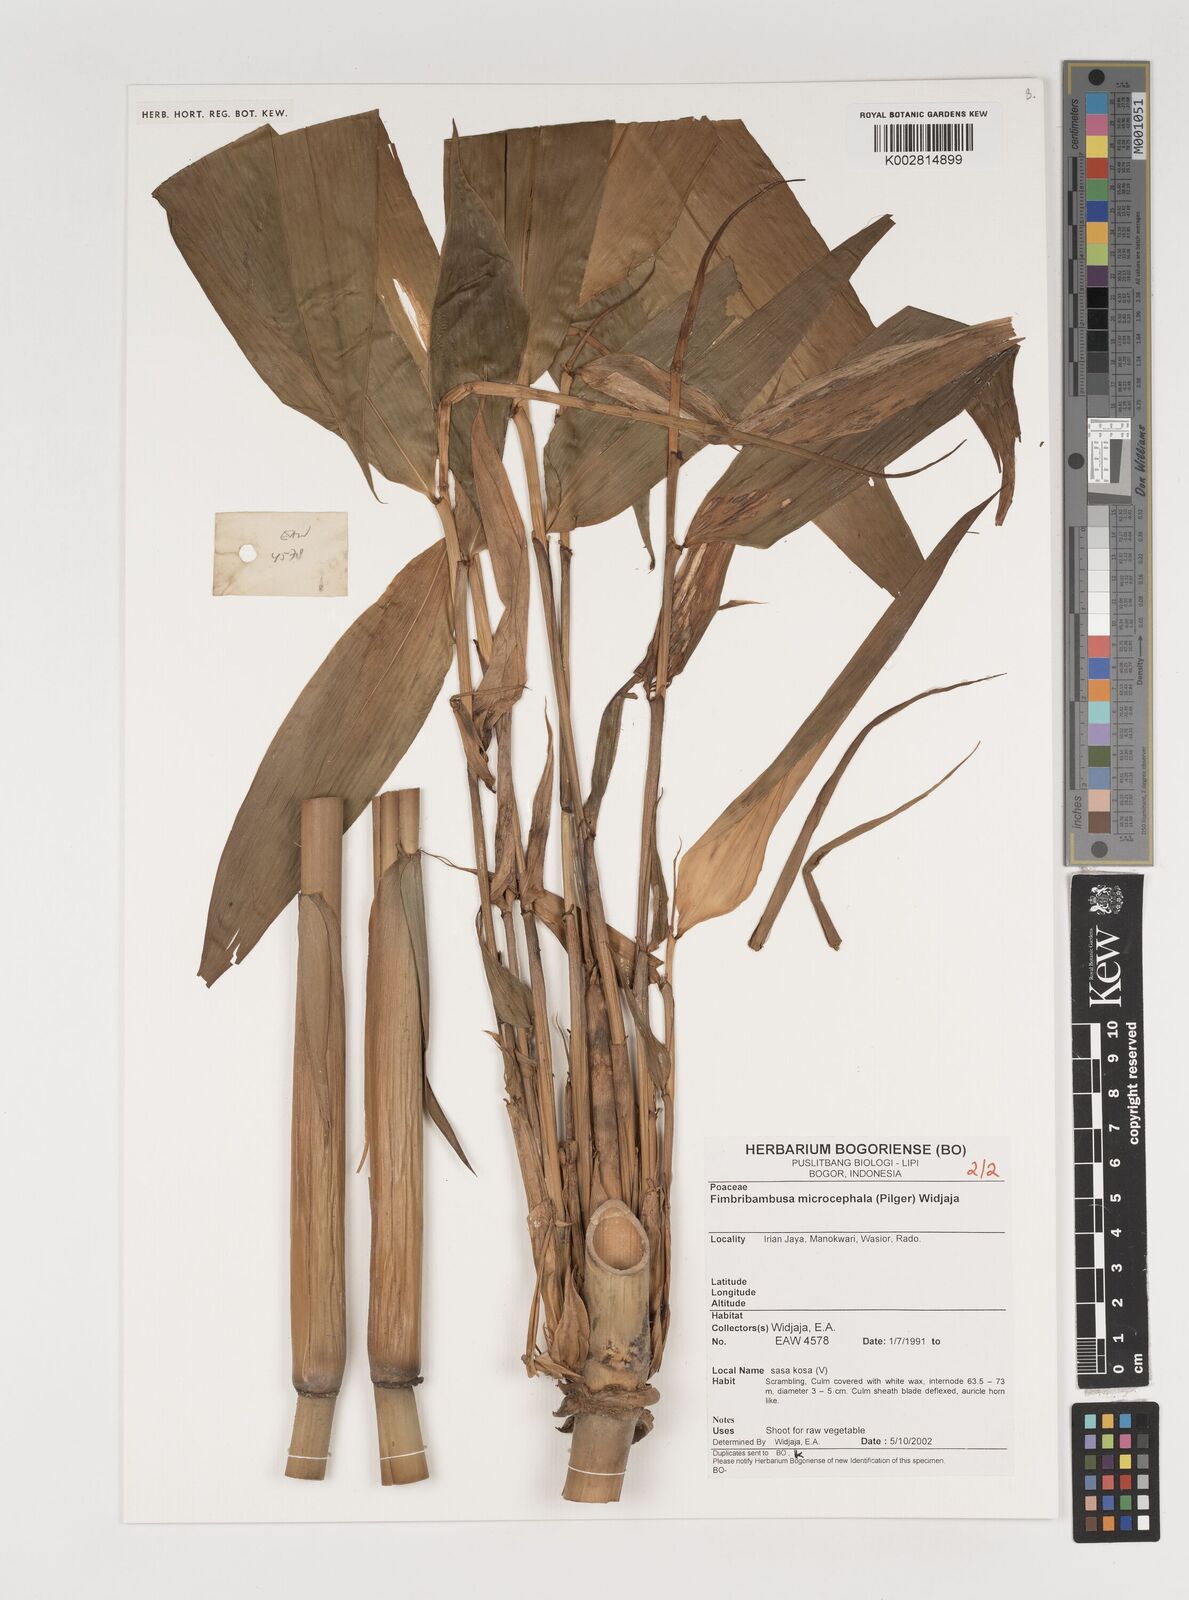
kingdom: Plantae
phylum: Tracheophyta
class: Liliopsida
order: Poales
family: Poaceae
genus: Fimbribambusa
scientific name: Fimbribambusa microcephala
